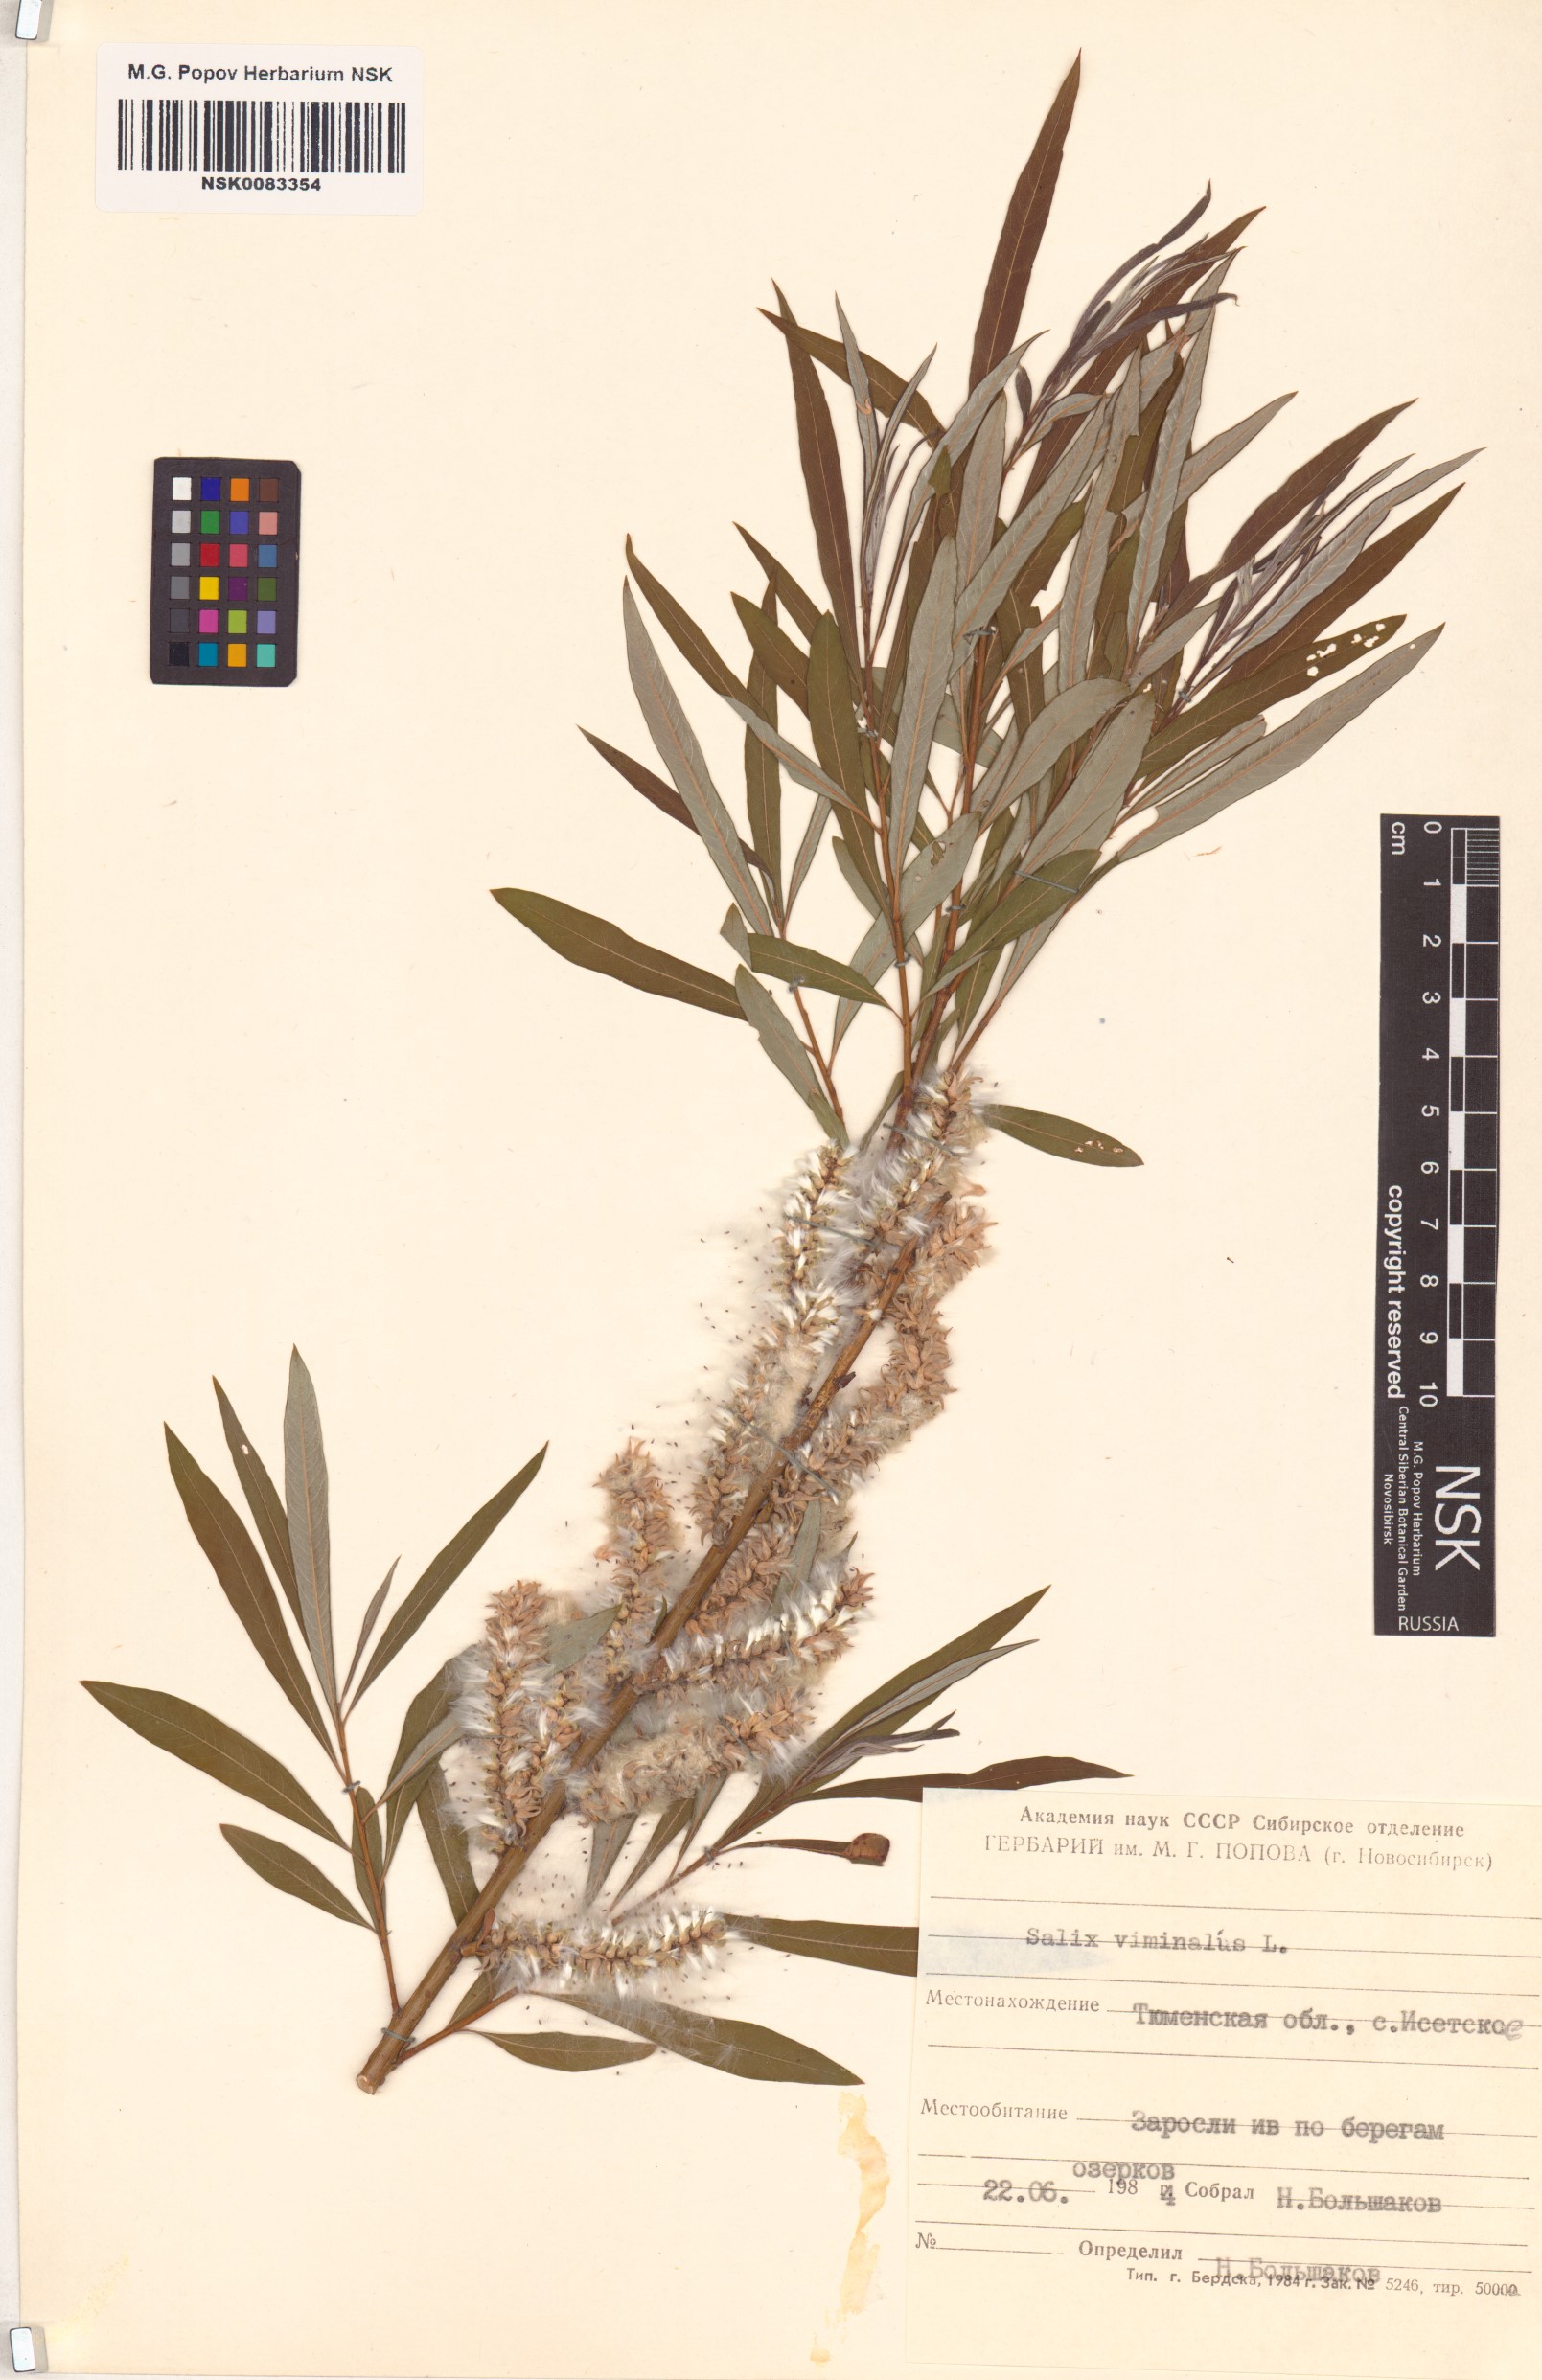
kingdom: Plantae
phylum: Tracheophyta
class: Magnoliopsida
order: Malpighiales
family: Salicaceae
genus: Salix
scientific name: Salix viminalis
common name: Osier
